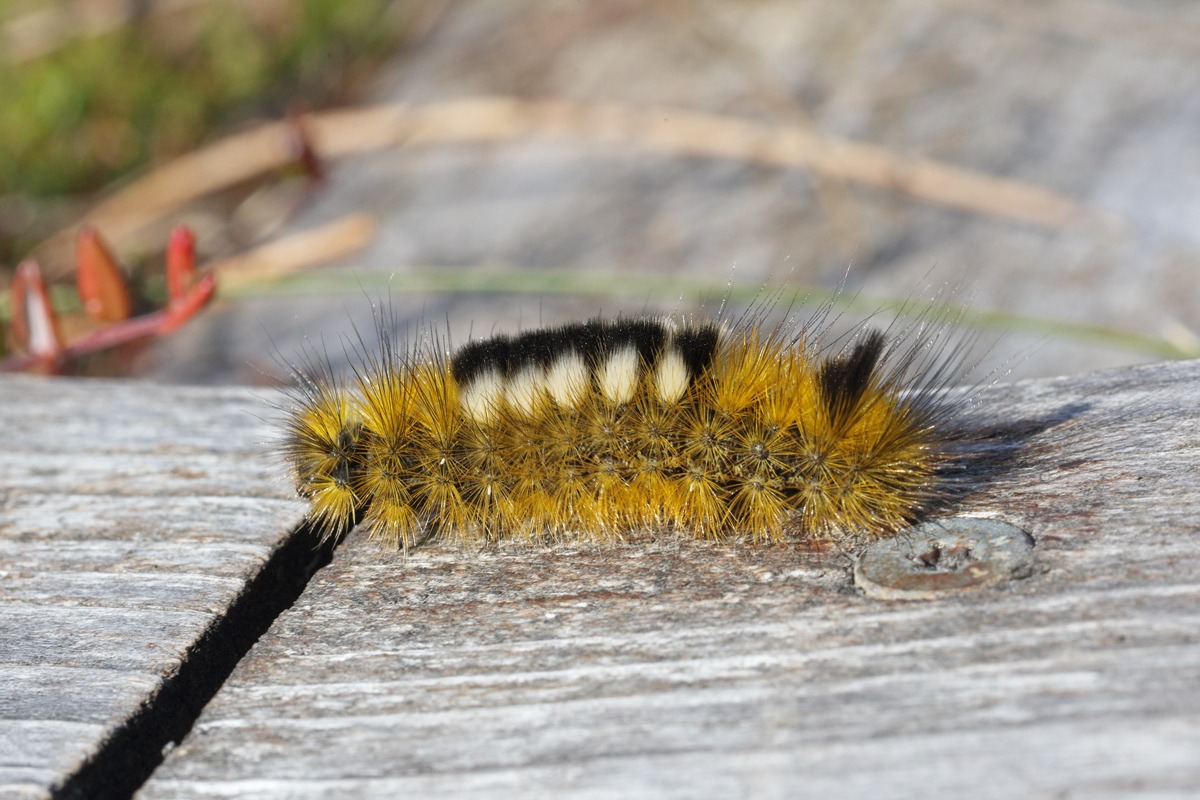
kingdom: Animalia
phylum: Arthropoda
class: Insecta
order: Lepidoptera
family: Erebidae
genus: Calliteara
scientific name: Calliteara Dicallomera fascelina
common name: Hedenonne
